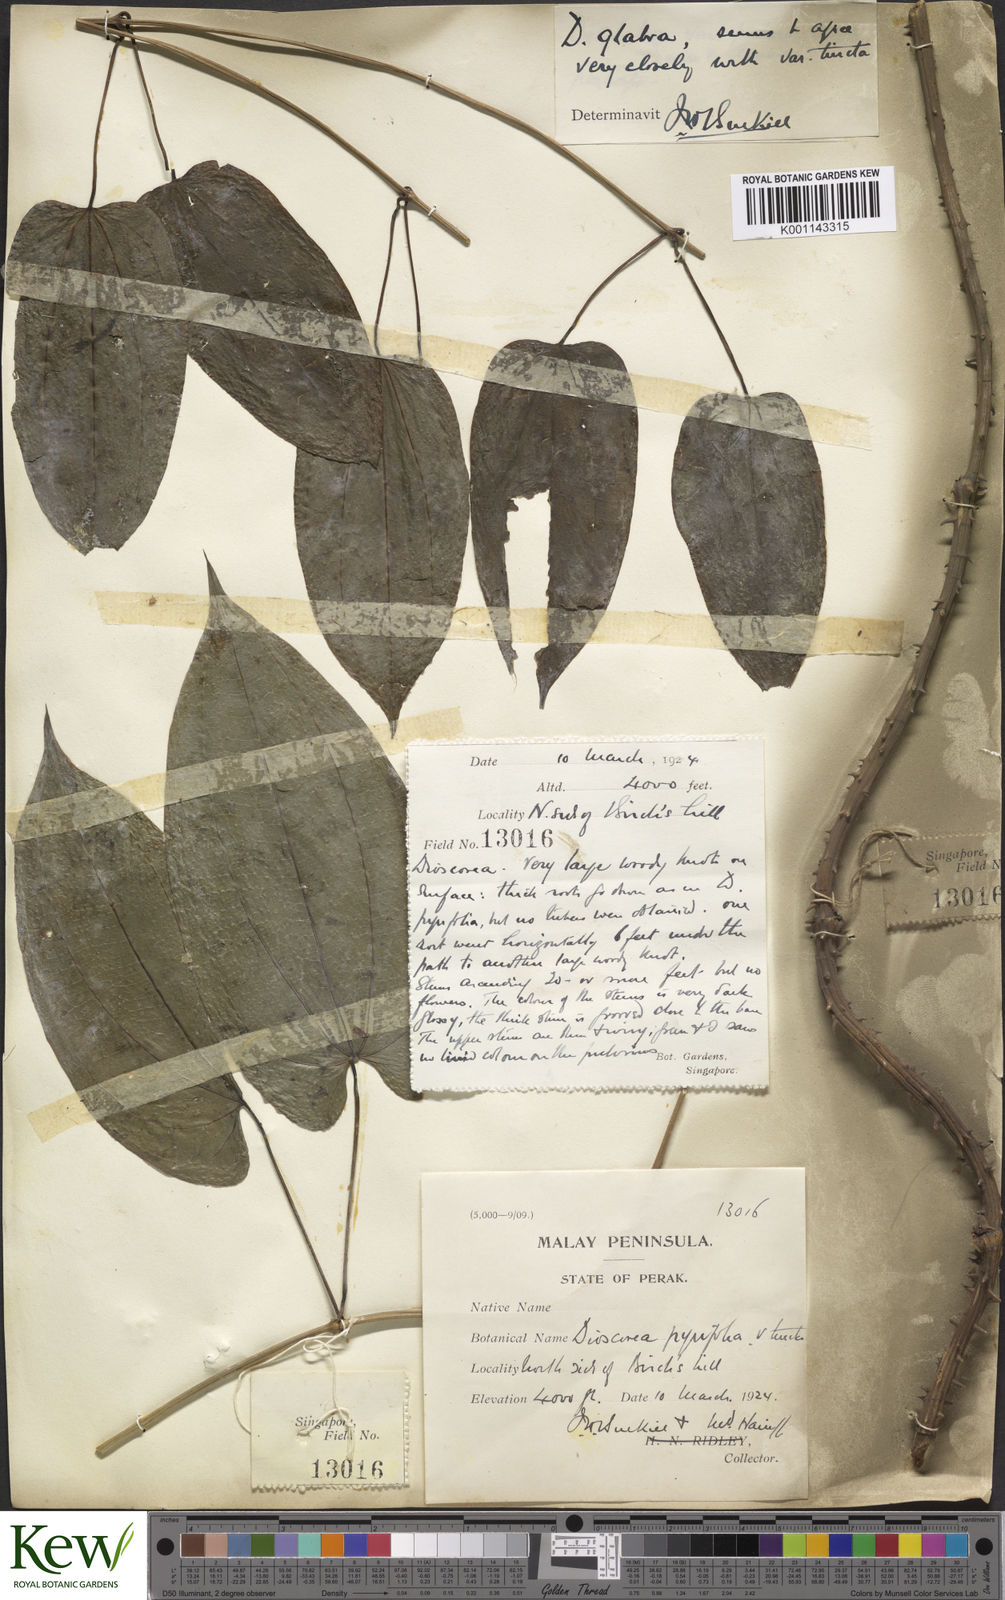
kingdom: Plantae
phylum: Tracheophyta
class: Liliopsida
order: Dioscoreales
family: Dioscoreaceae
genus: Dioscorea
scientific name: Dioscorea glabra
